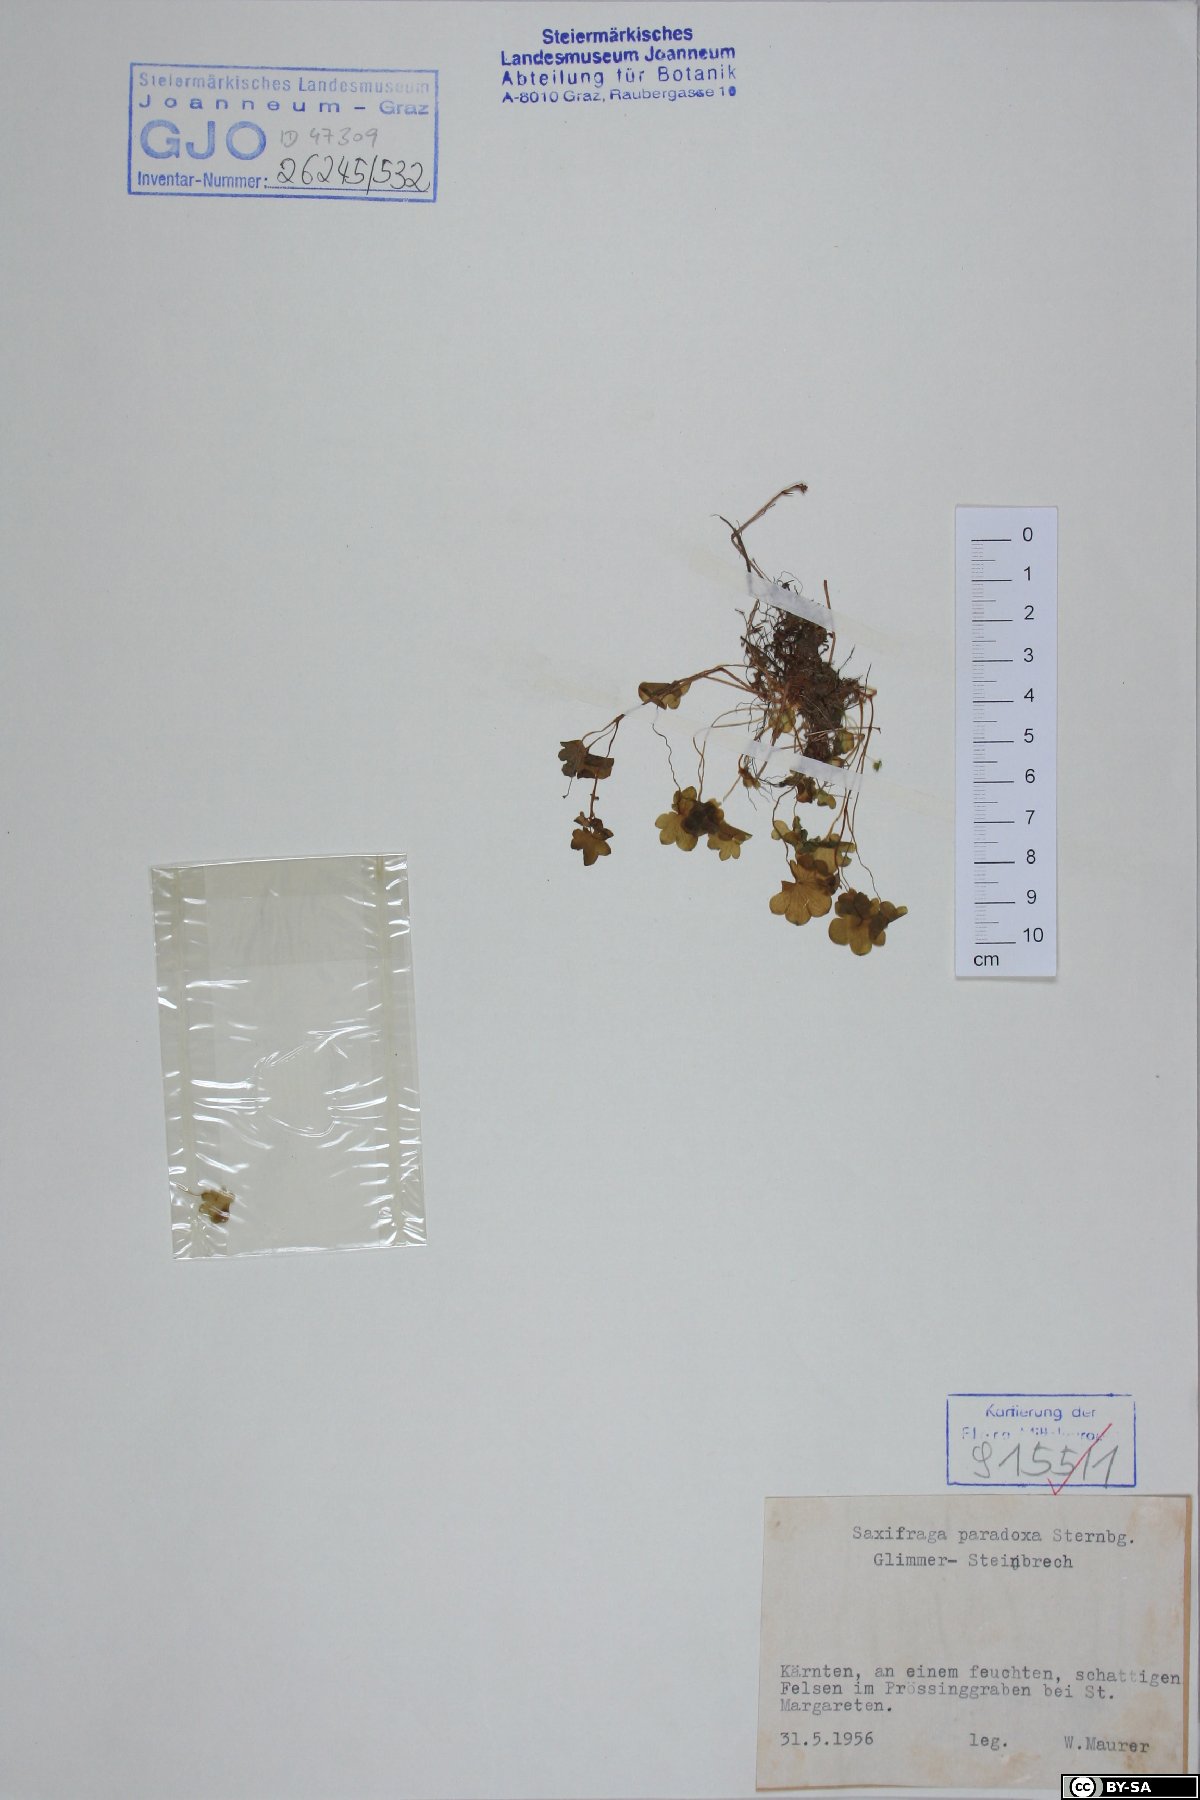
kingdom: Plantae
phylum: Tracheophyta
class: Magnoliopsida
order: Saxifragales
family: Saxifragaceae
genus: Saxifraga
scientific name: Saxifraga paradoxa
